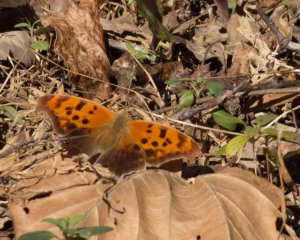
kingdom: Animalia
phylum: Arthropoda
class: Insecta
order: Lepidoptera
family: Nymphalidae
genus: Polygonia
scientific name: Polygonia interrogationis
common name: Question Mark
